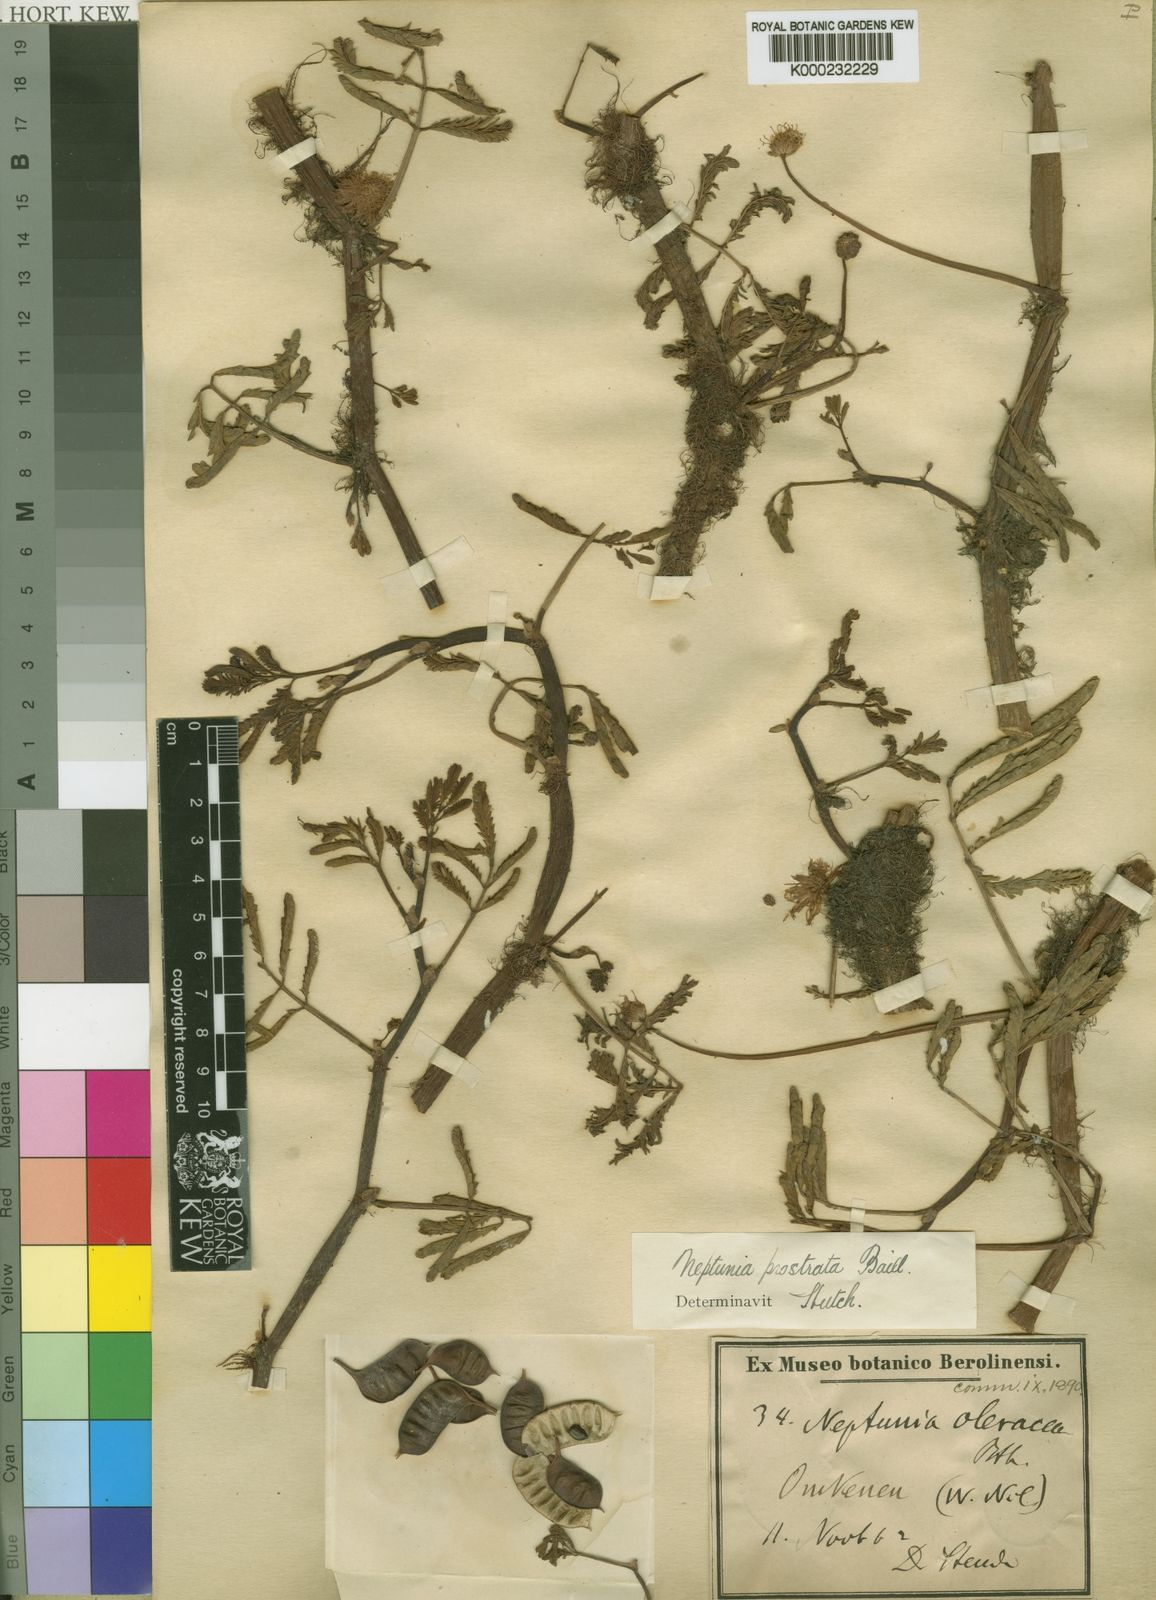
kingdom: Plantae
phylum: Tracheophyta
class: Magnoliopsida
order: Fabales
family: Fabaceae
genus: Neptunia
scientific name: Neptunia
